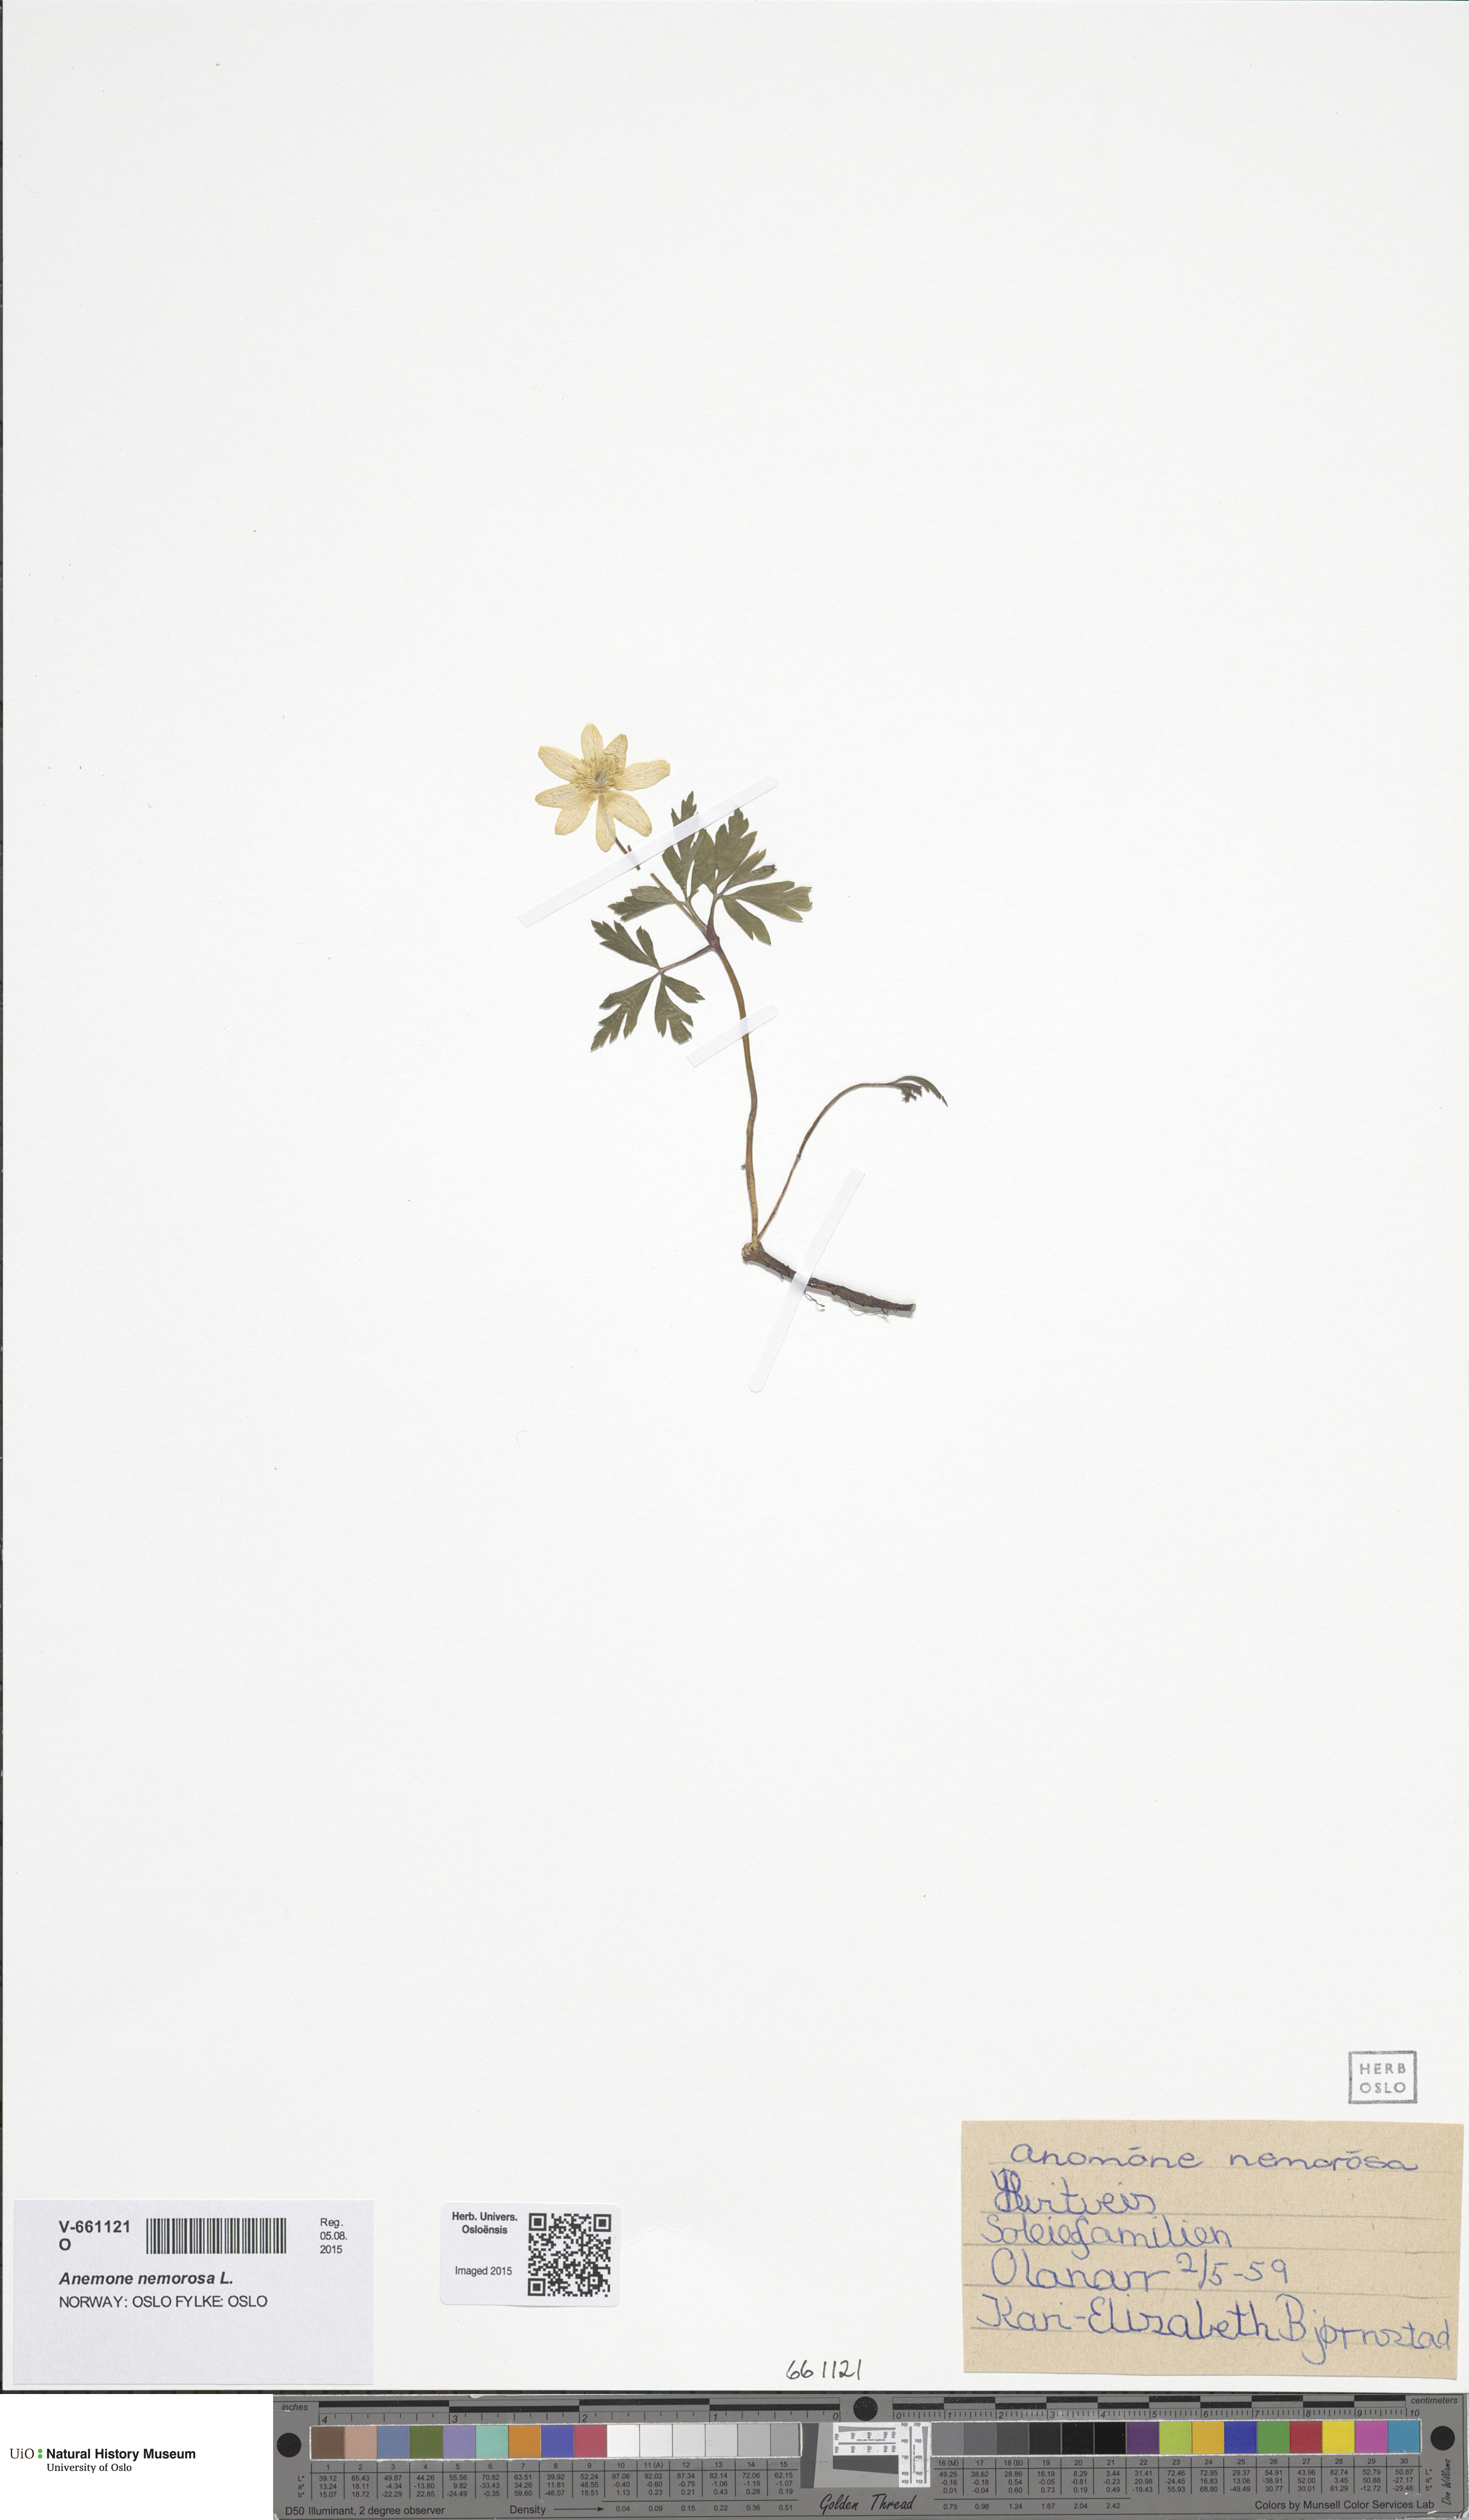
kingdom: Plantae
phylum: Tracheophyta
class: Magnoliopsida
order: Ranunculales
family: Ranunculaceae
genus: Anemone
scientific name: Anemone nemorosa
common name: Wood anemone
